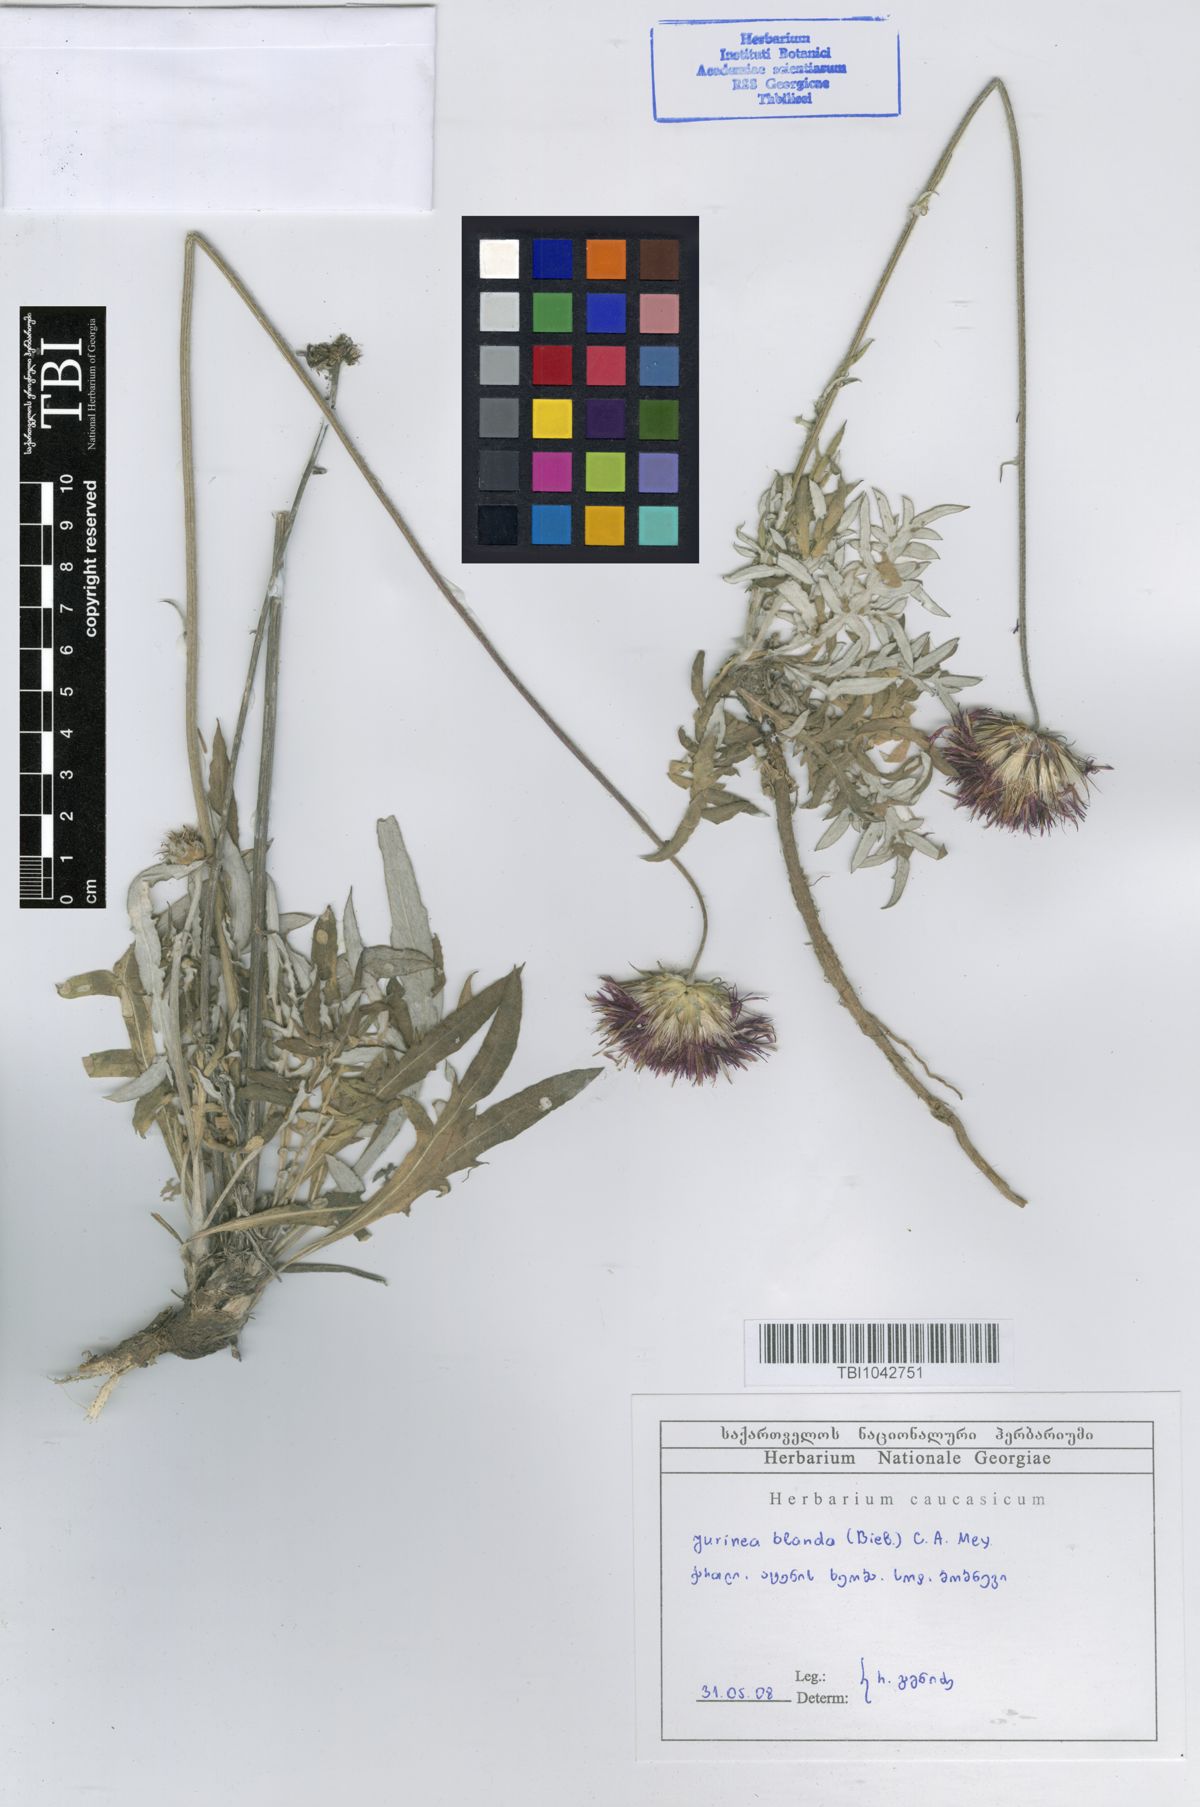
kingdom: Plantae
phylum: Tracheophyta
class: Magnoliopsida
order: Asterales
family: Asteraceae
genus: Jurinea
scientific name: Jurinea blanda
